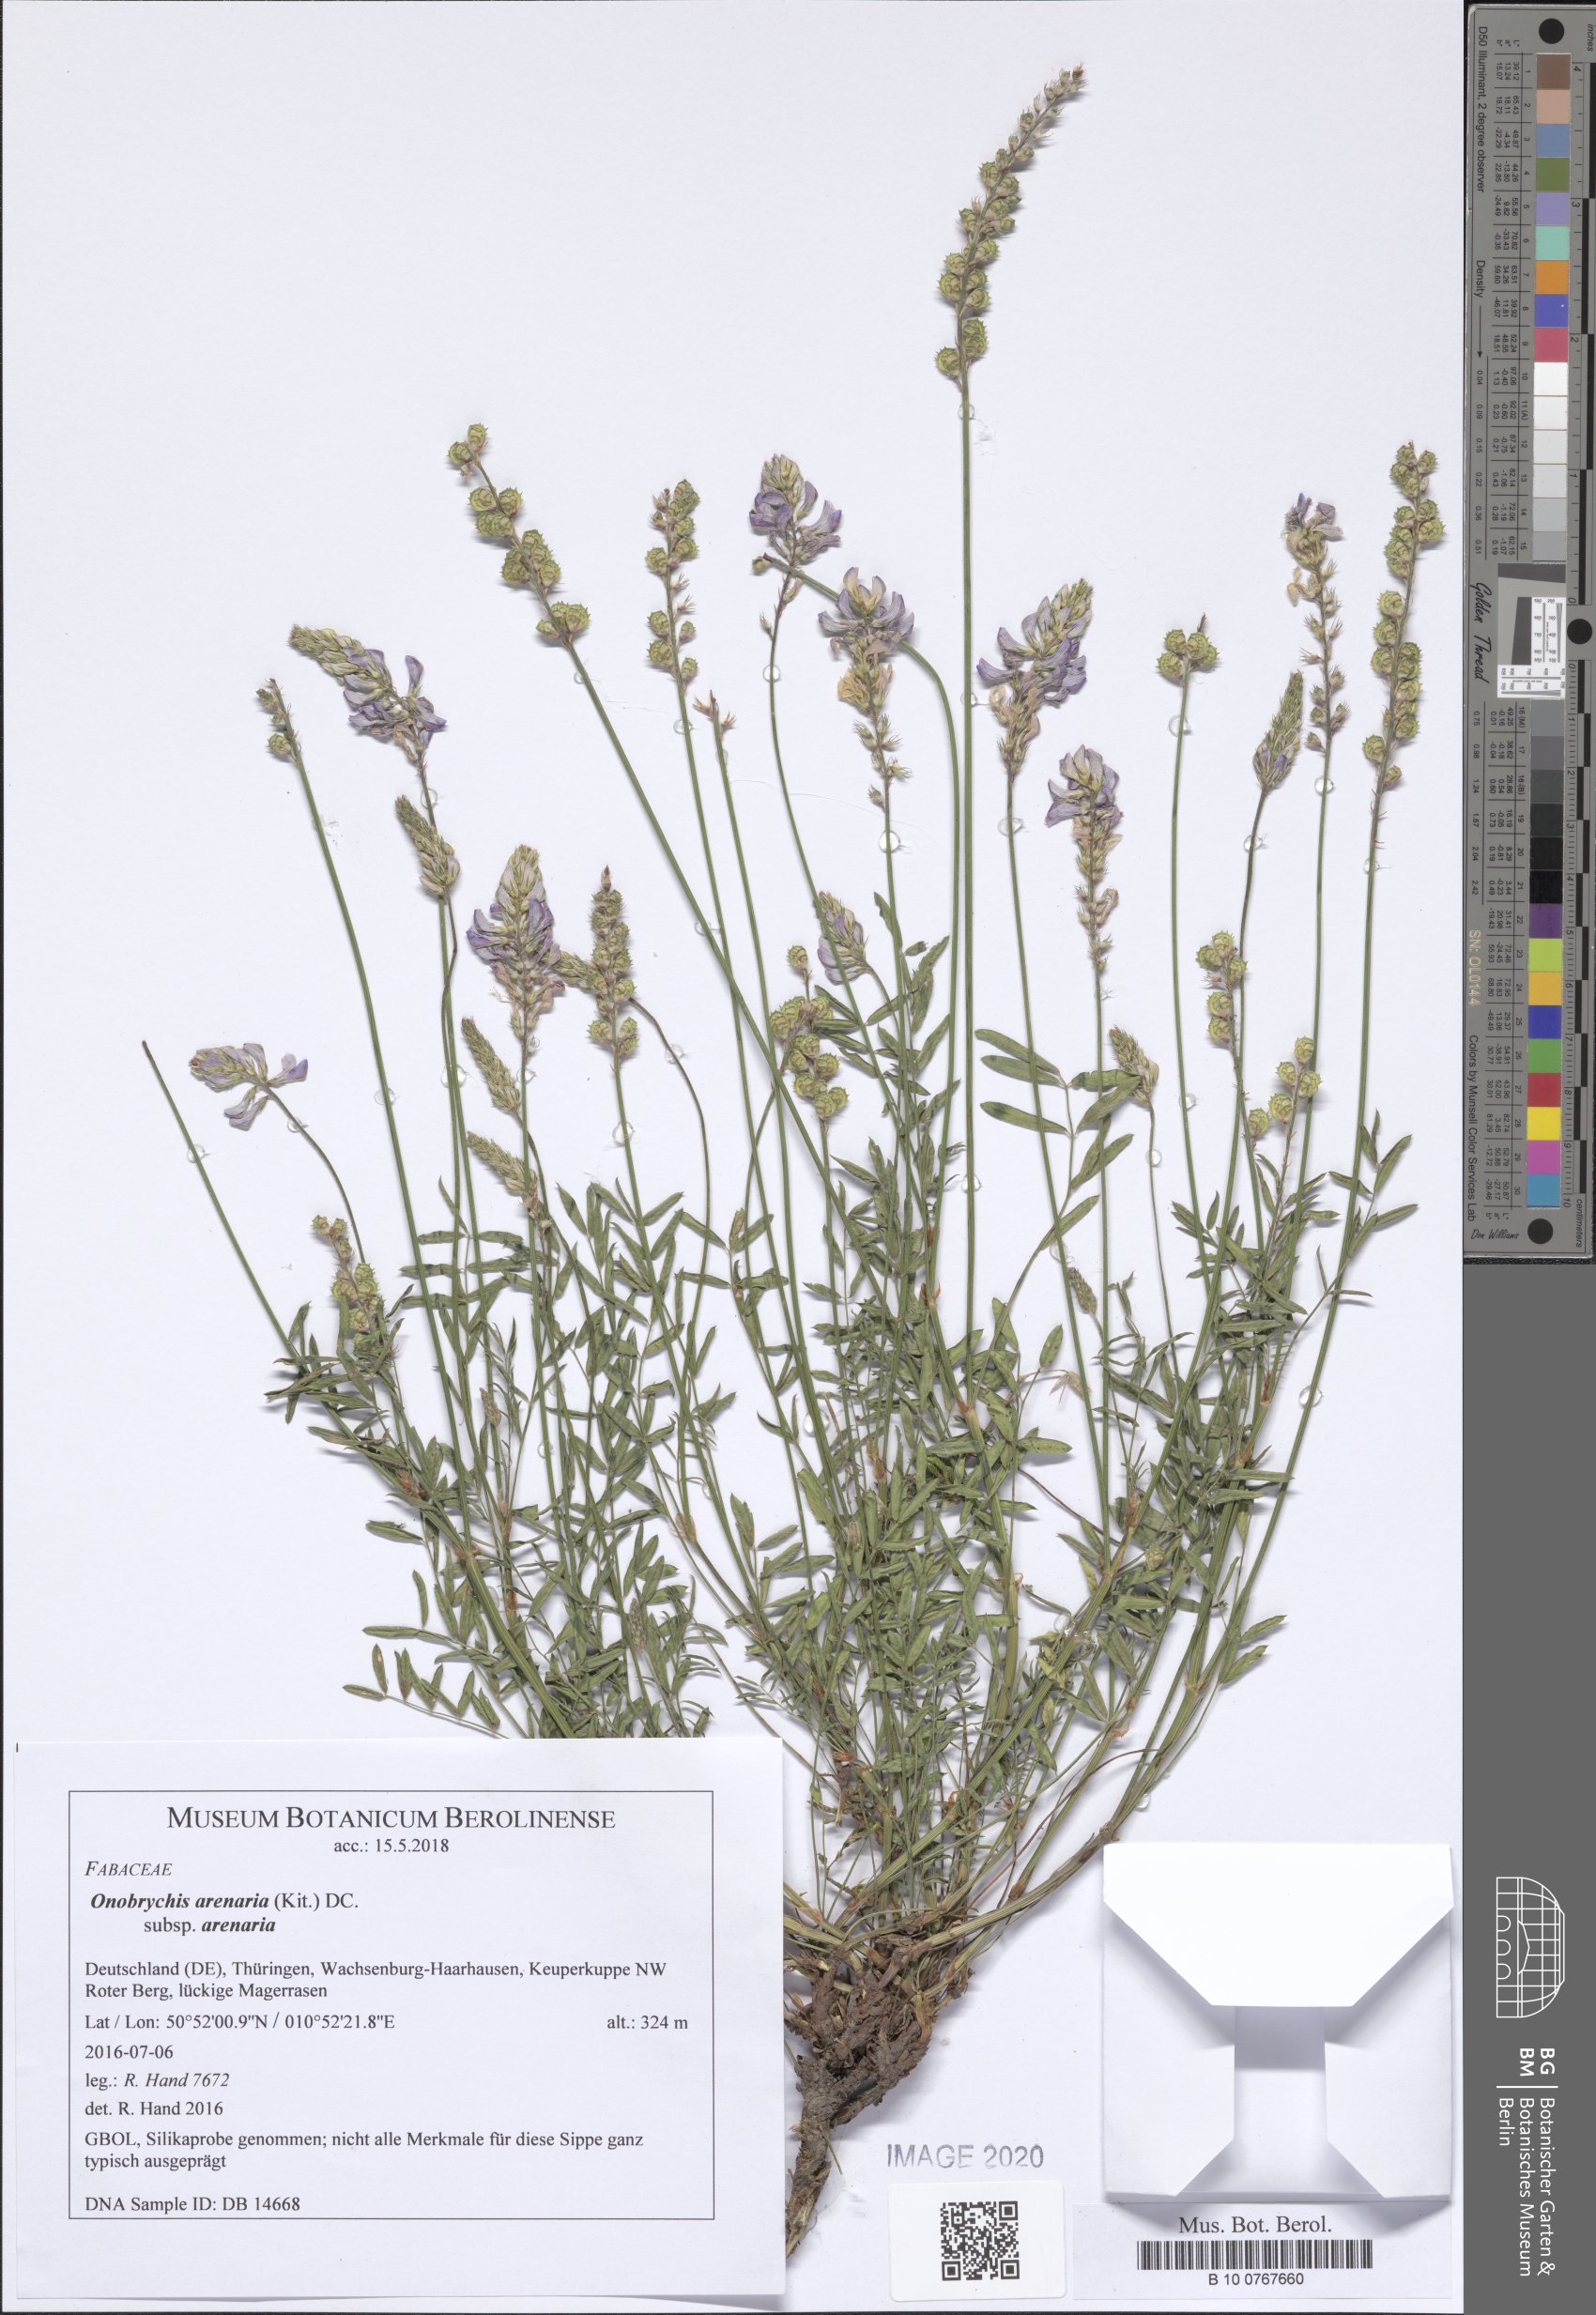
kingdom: Plantae
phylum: Tracheophyta
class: Magnoliopsida
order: Fabales
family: Fabaceae
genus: Onobrychis
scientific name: Onobrychis arenaria
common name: Sand esparcet
